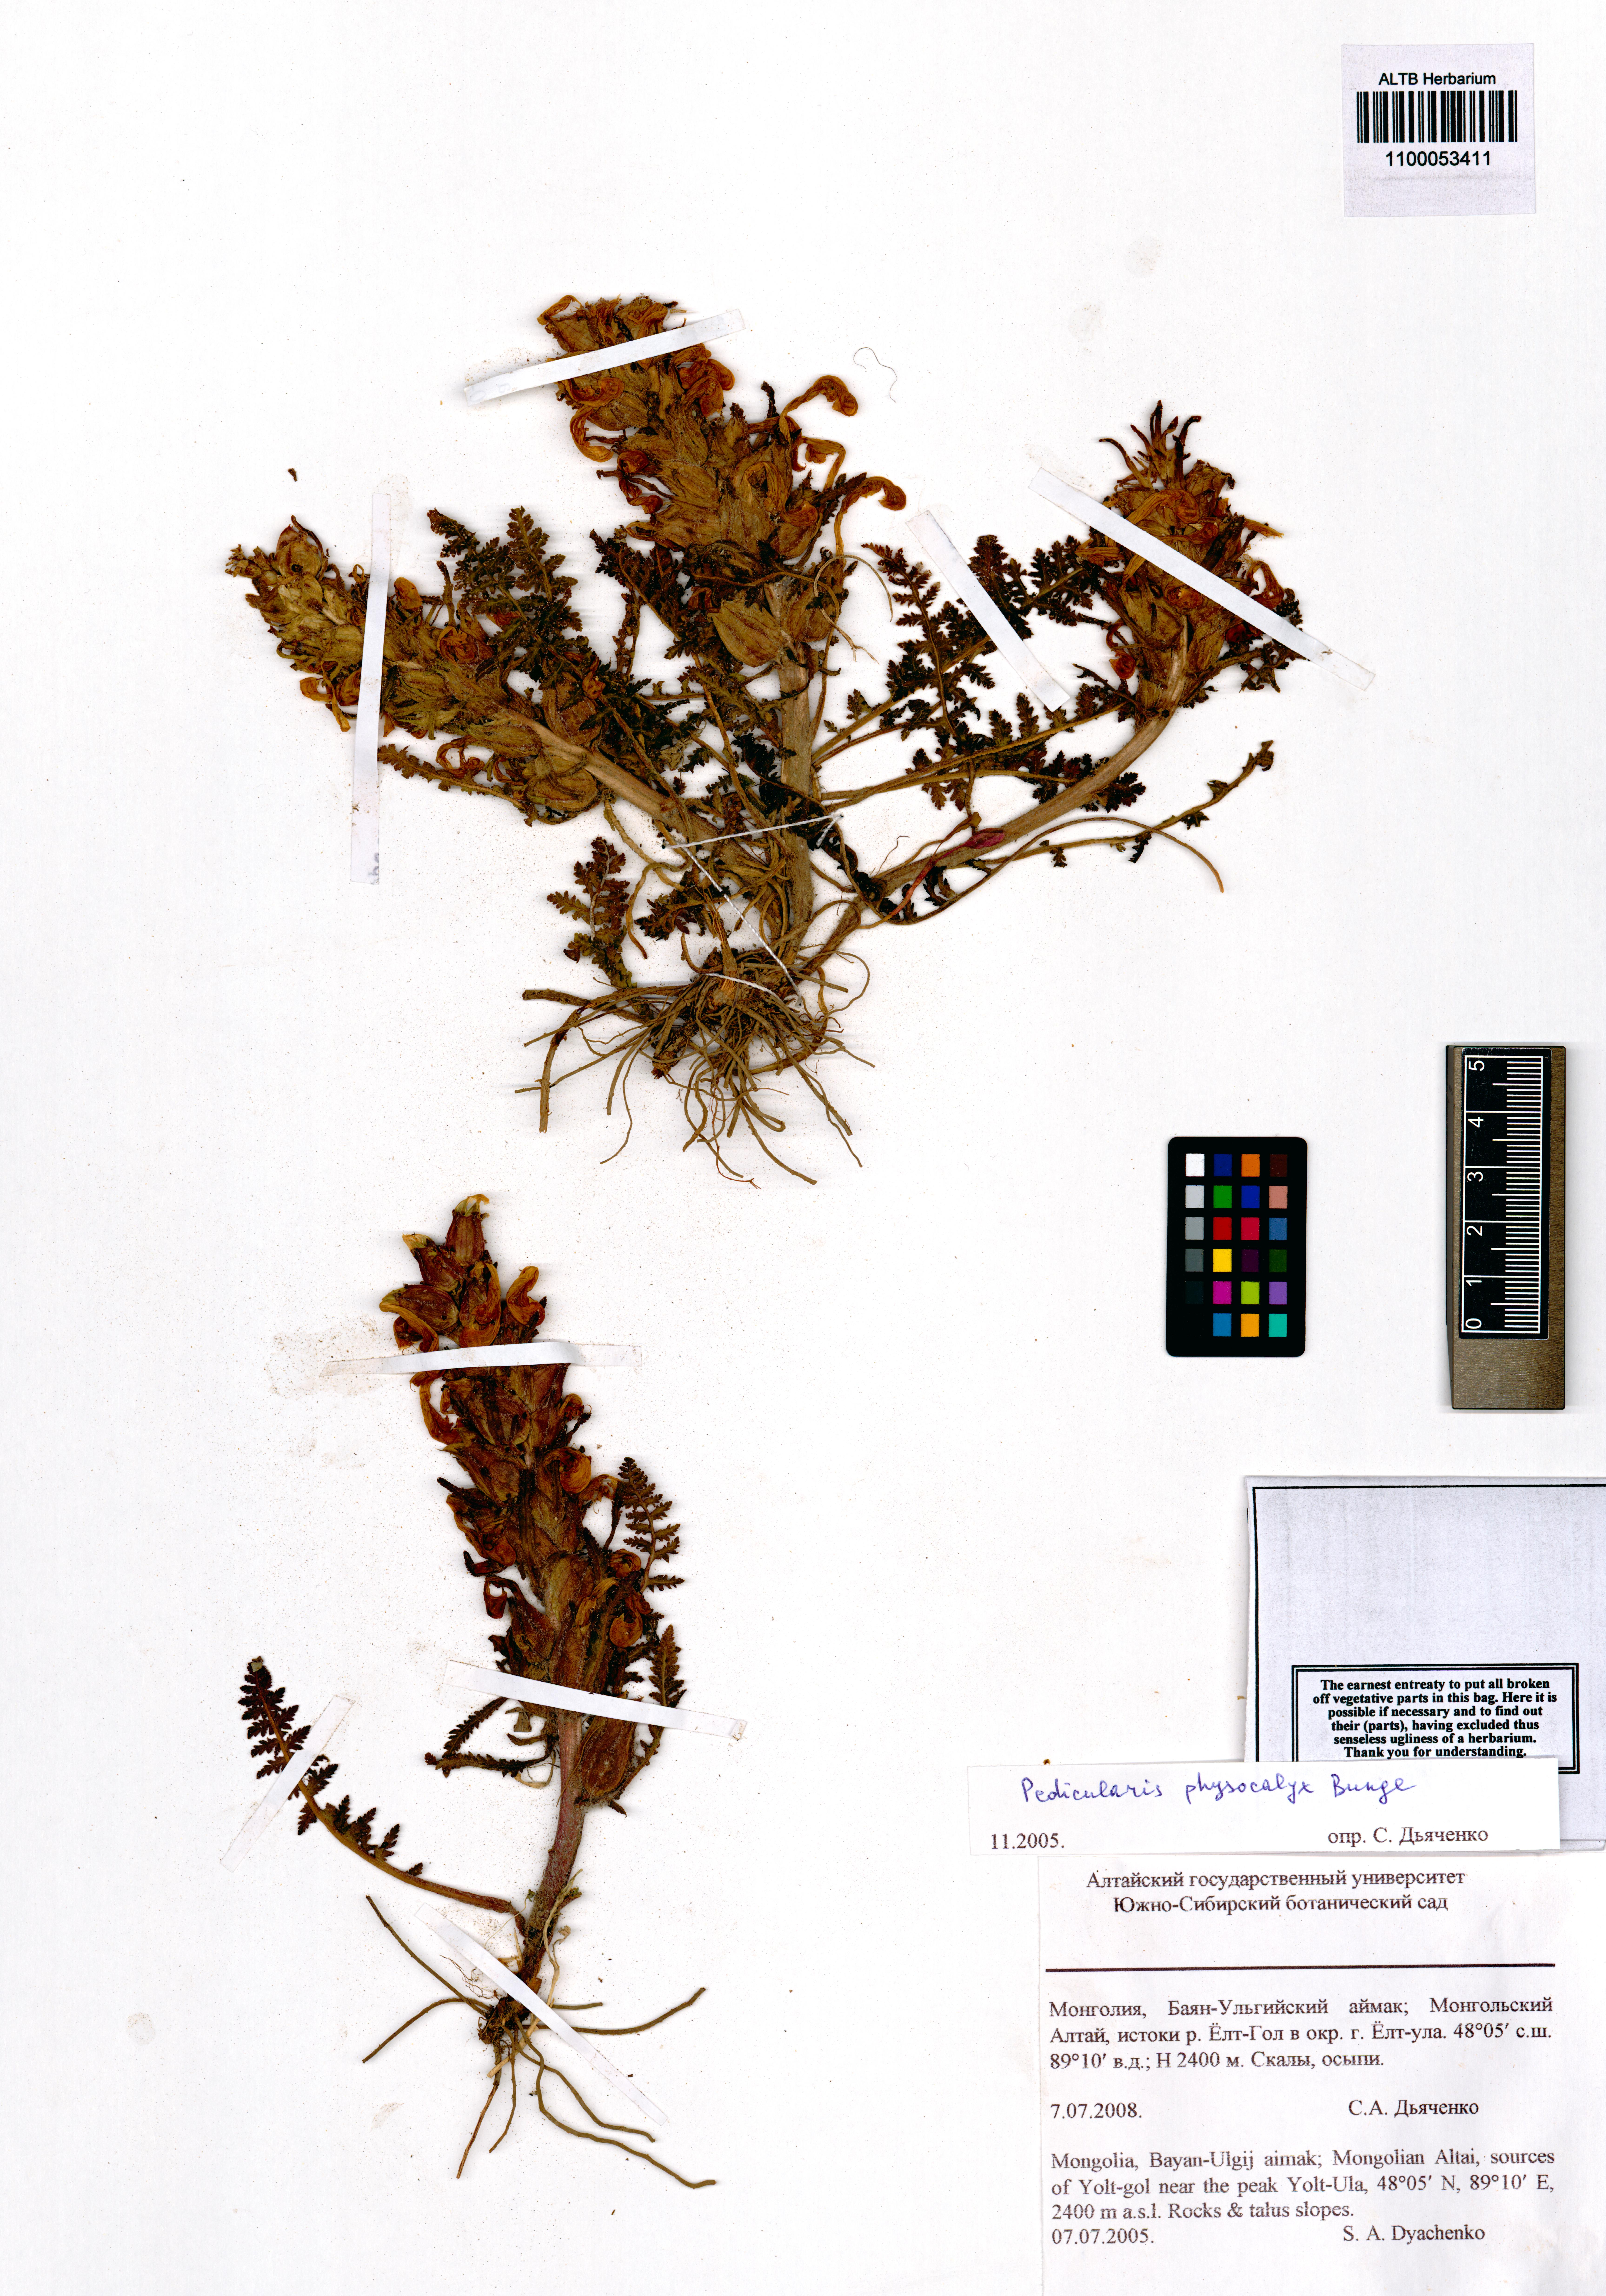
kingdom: Plantae
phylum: Tracheophyta
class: Magnoliopsida
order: Lamiales
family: Orobanchaceae
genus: Pedicularis
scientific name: Pedicularis physocalyx
